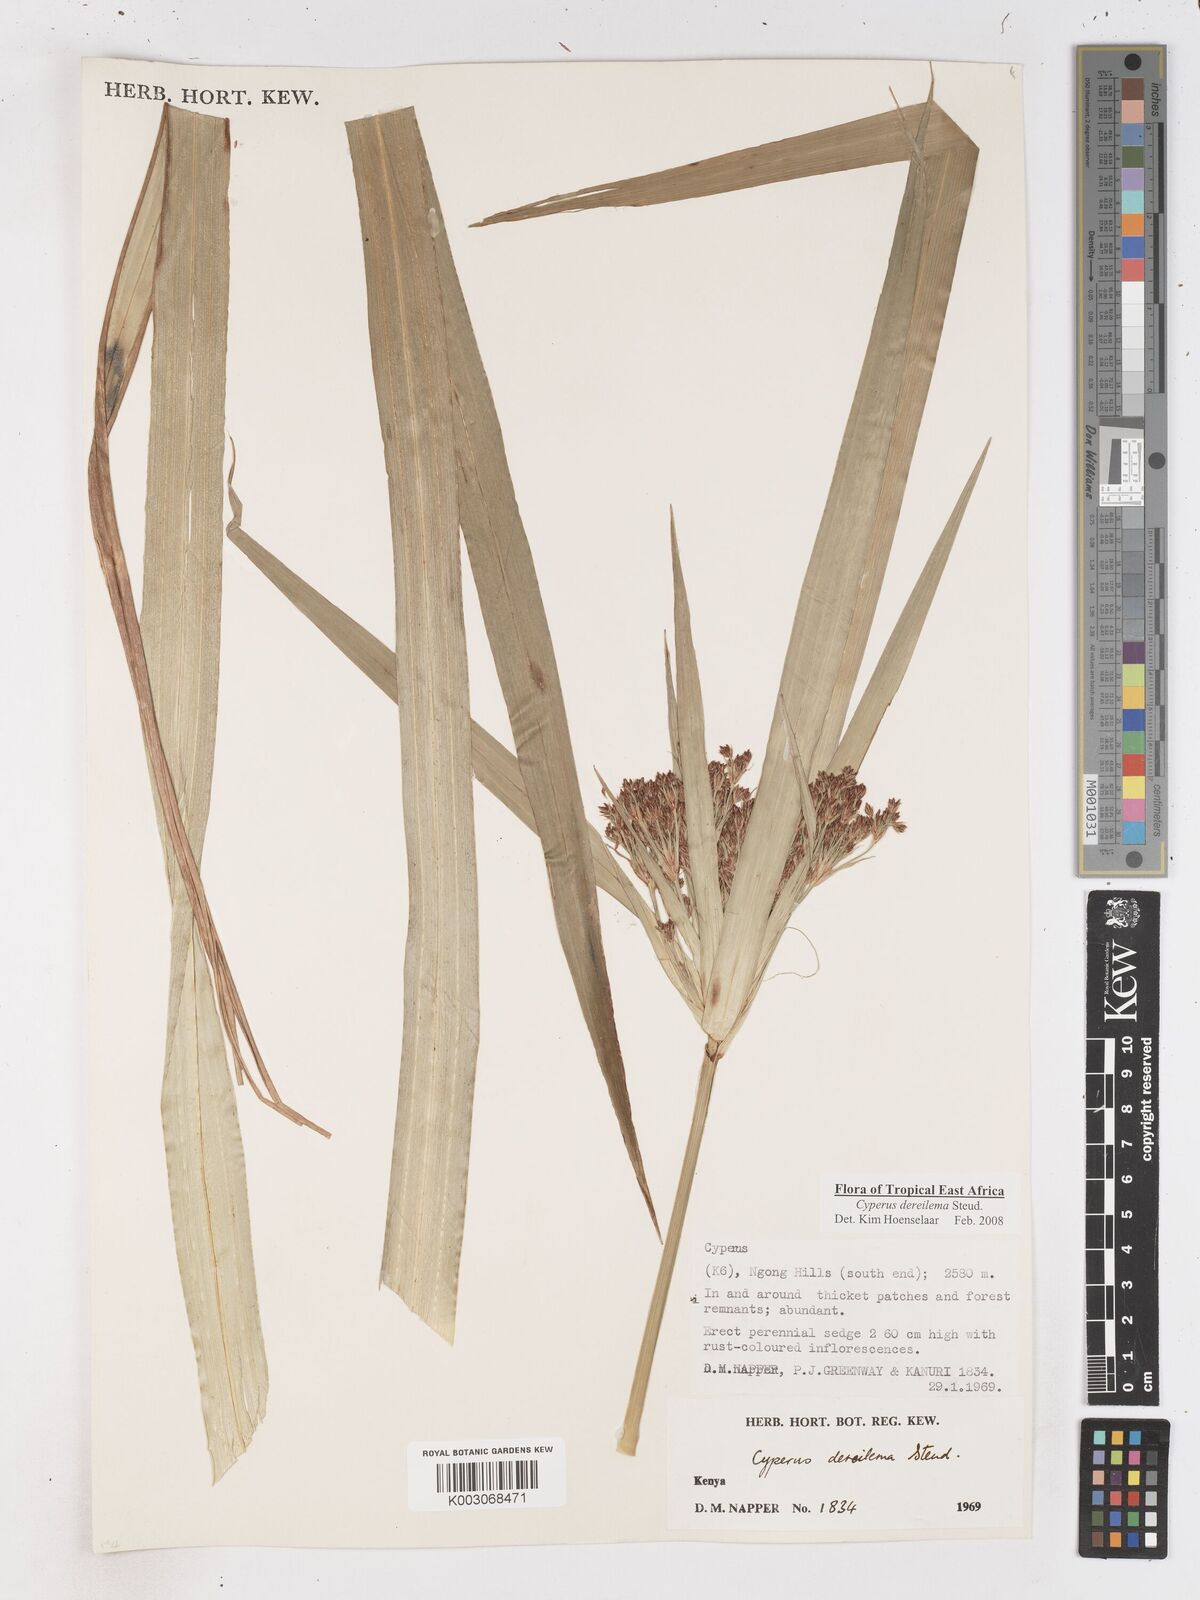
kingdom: Plantae
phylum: Tracheophyta
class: Liliopsida
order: Poales
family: Cyperaceae
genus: Cyperus
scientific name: Cyperus derreilema
